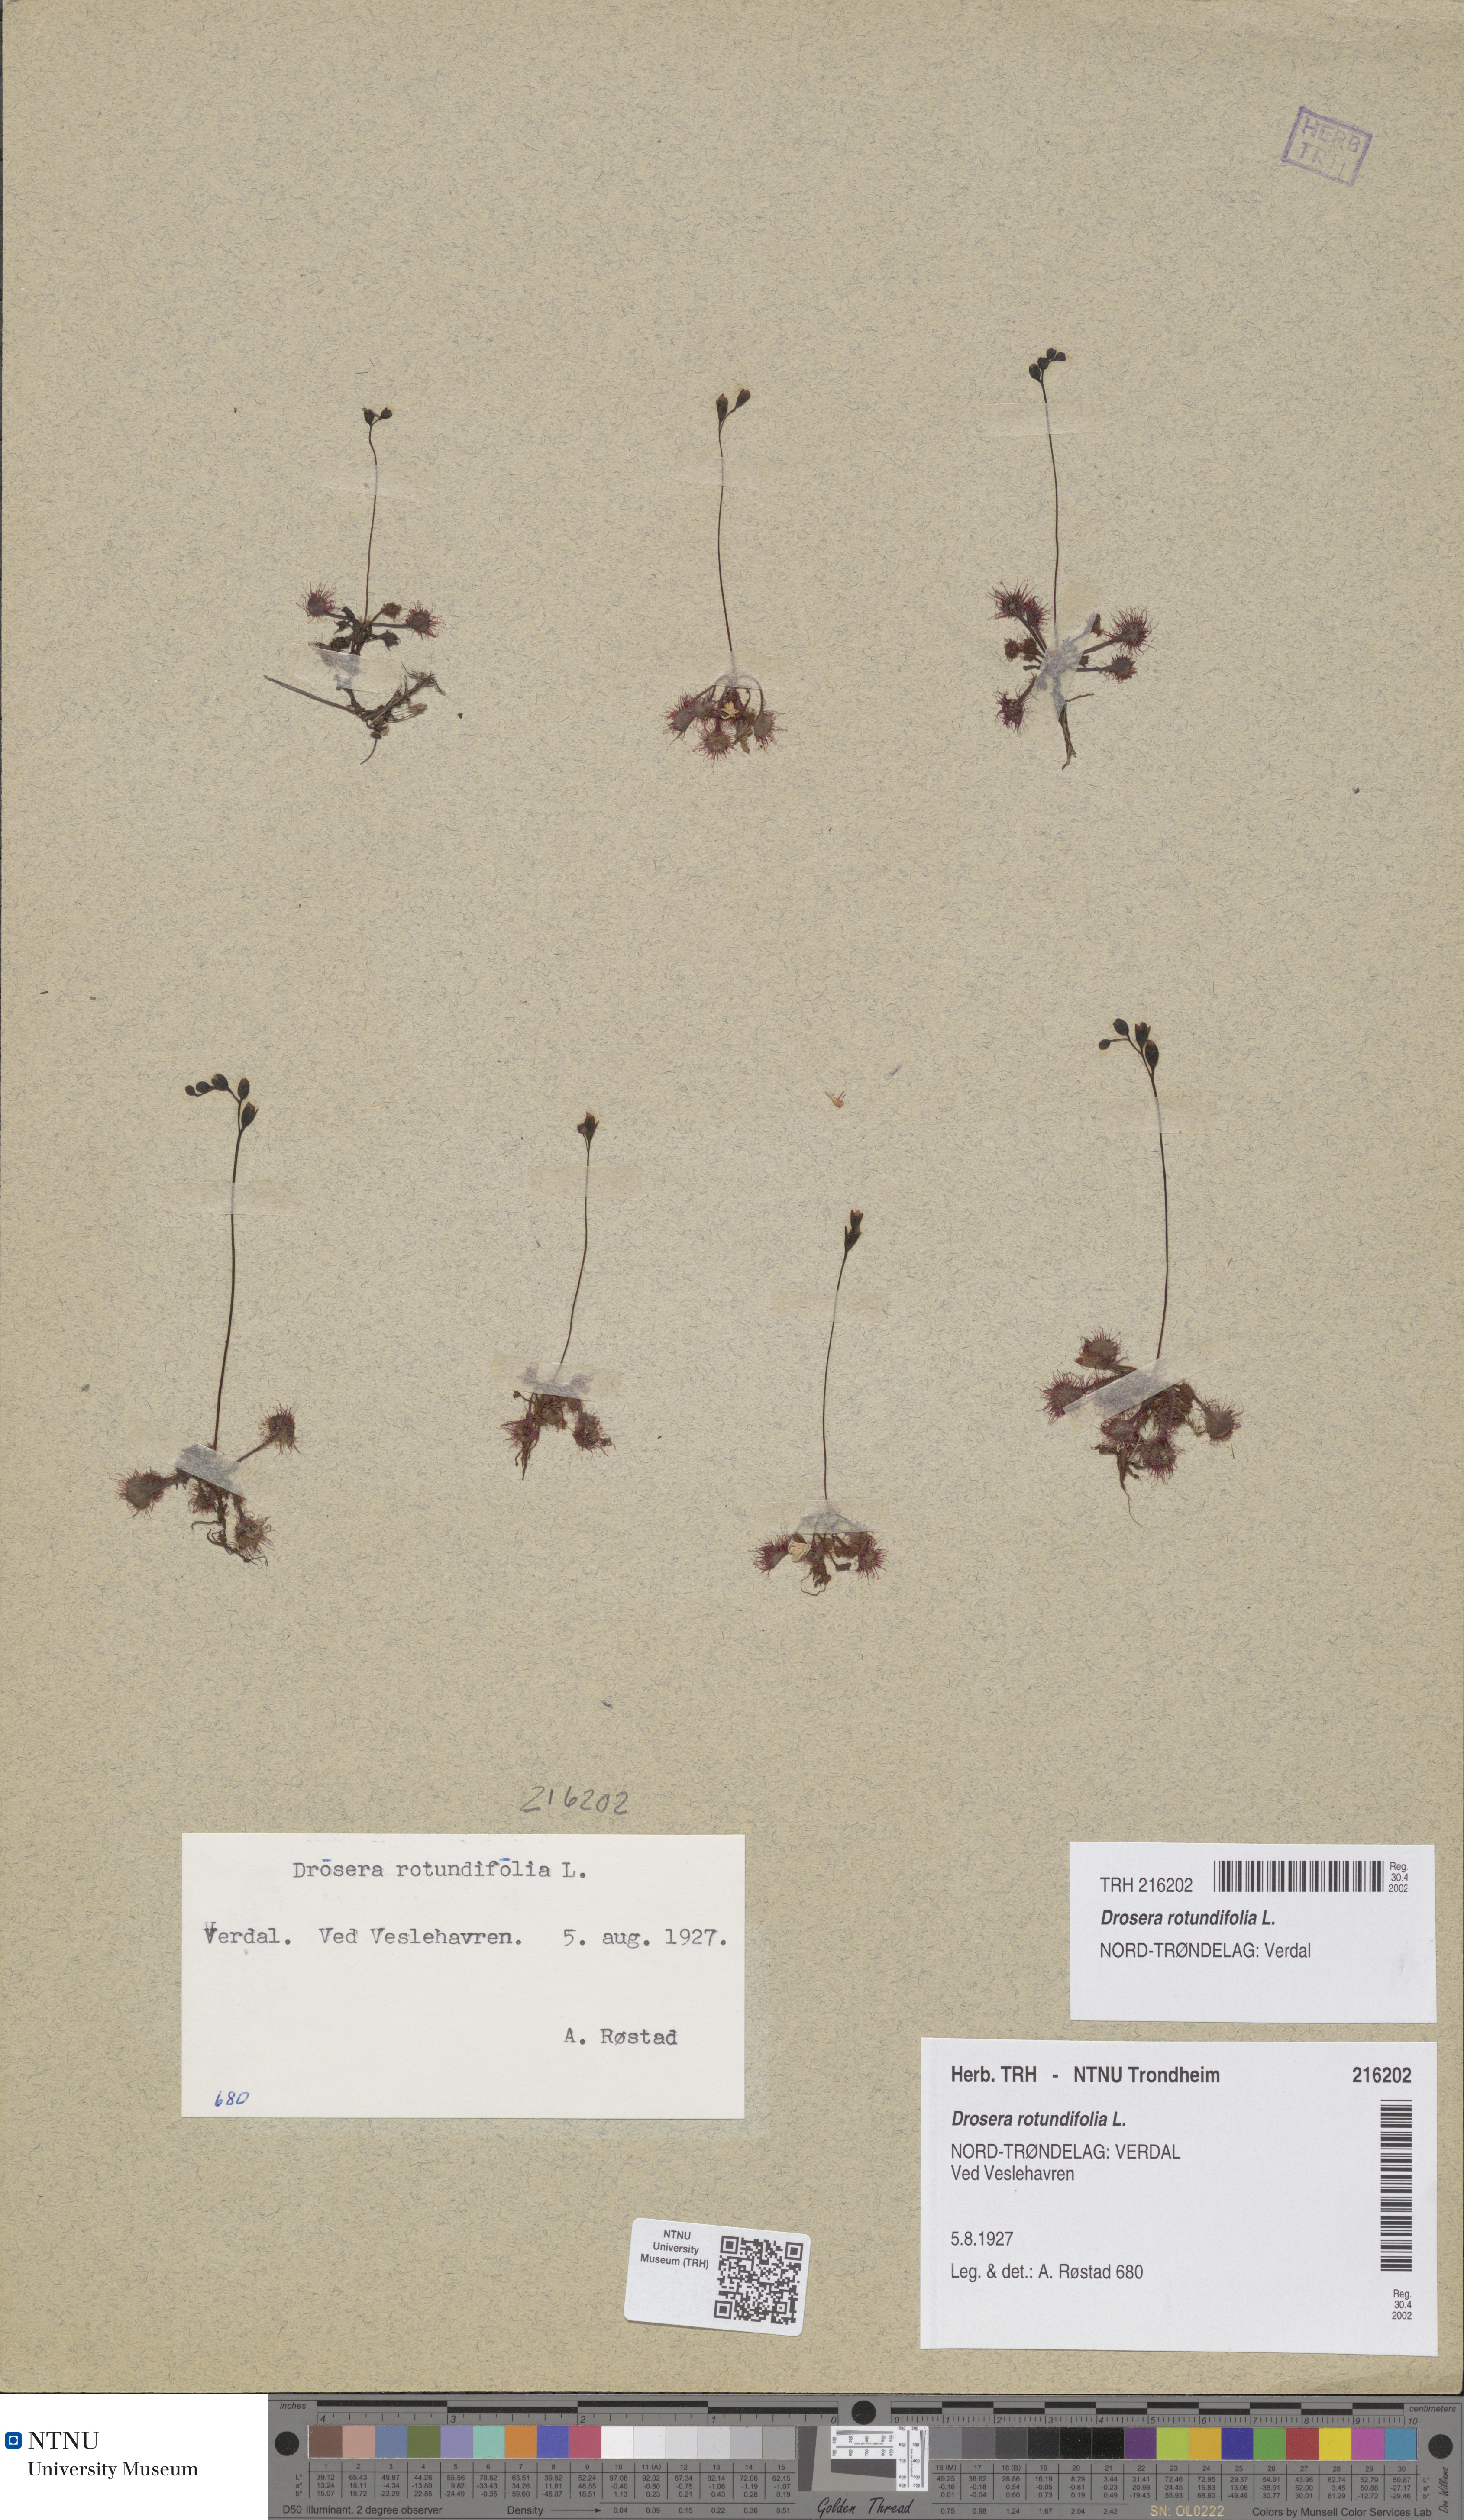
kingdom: Plantae
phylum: Tracheophyta
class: Magnoliopsida
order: Caryophyllales
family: Droseraceae
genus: Drosera
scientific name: Drosera rotundifolia
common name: Round-leaved sundew
